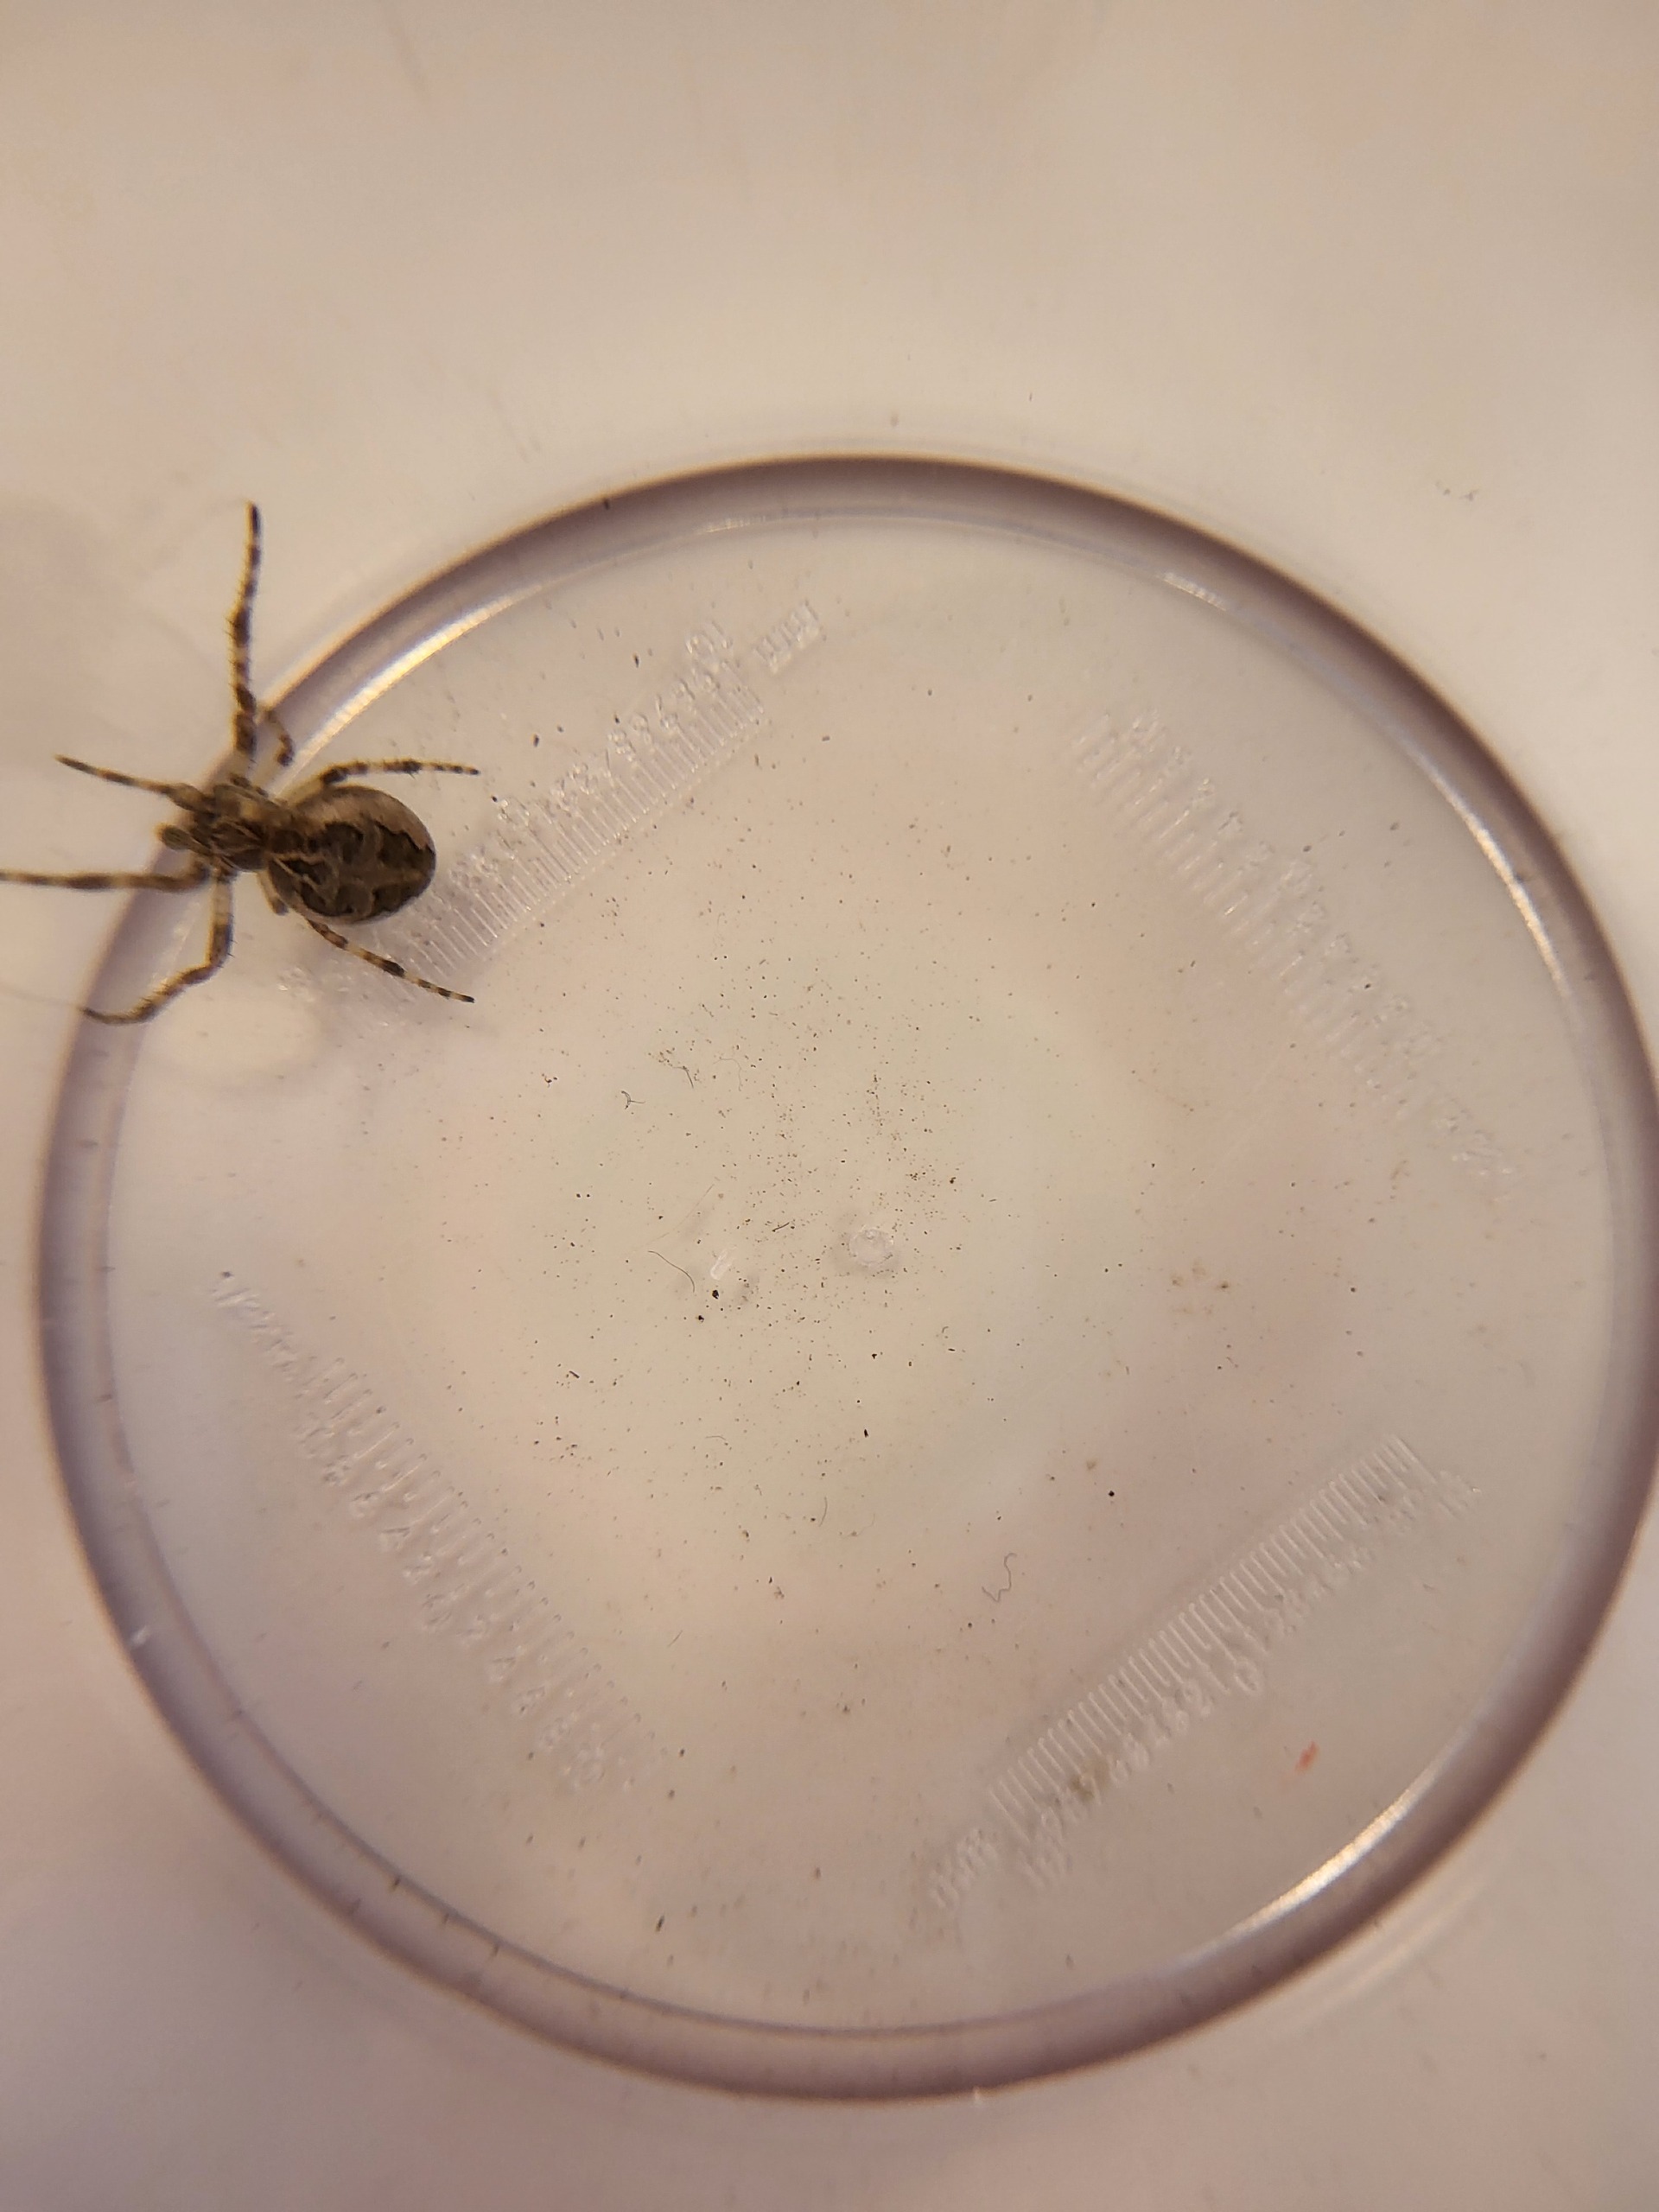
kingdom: Animalia
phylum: Arthropoda
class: Arachnida
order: Araneae
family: Araneidae
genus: Araneus
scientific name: Araneus diadematus
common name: Korsedderkop
